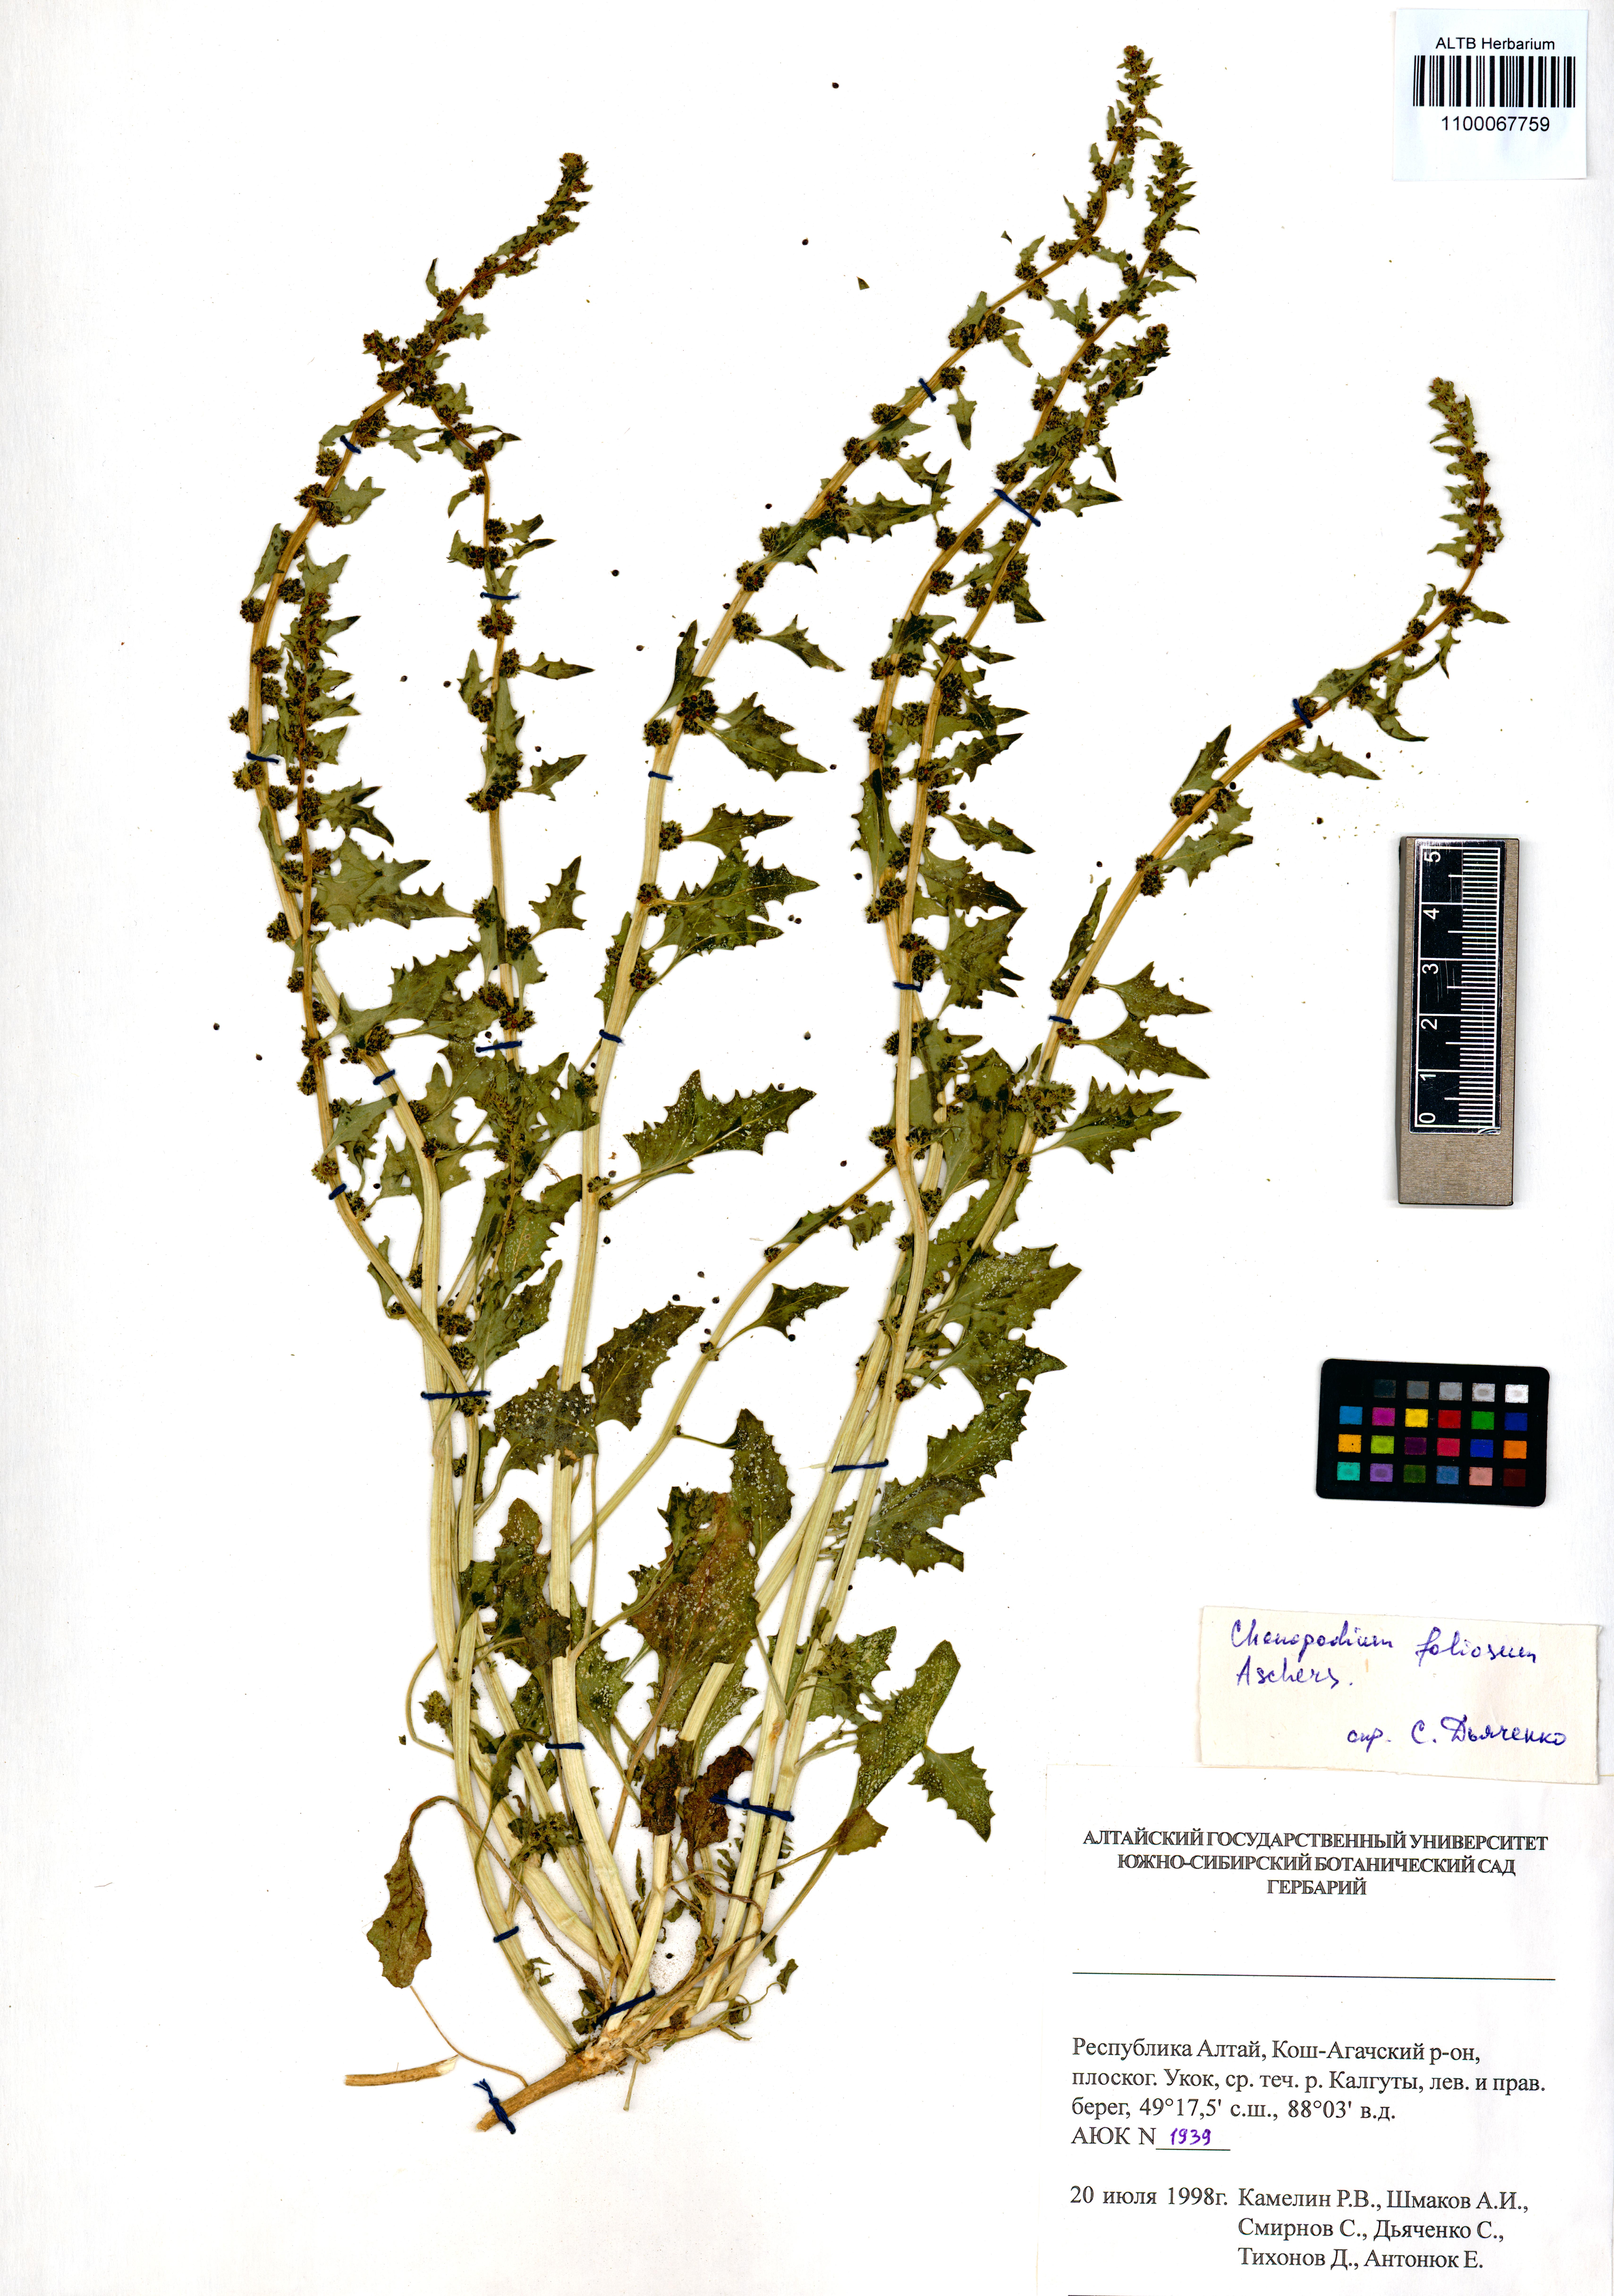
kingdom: Plantae
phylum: Tracheophyta
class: Magnoliopsida
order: Caryophyllales
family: Amaranthaceae
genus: Blitum
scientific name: Blitum virgatum
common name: Strawberry goosefoot
